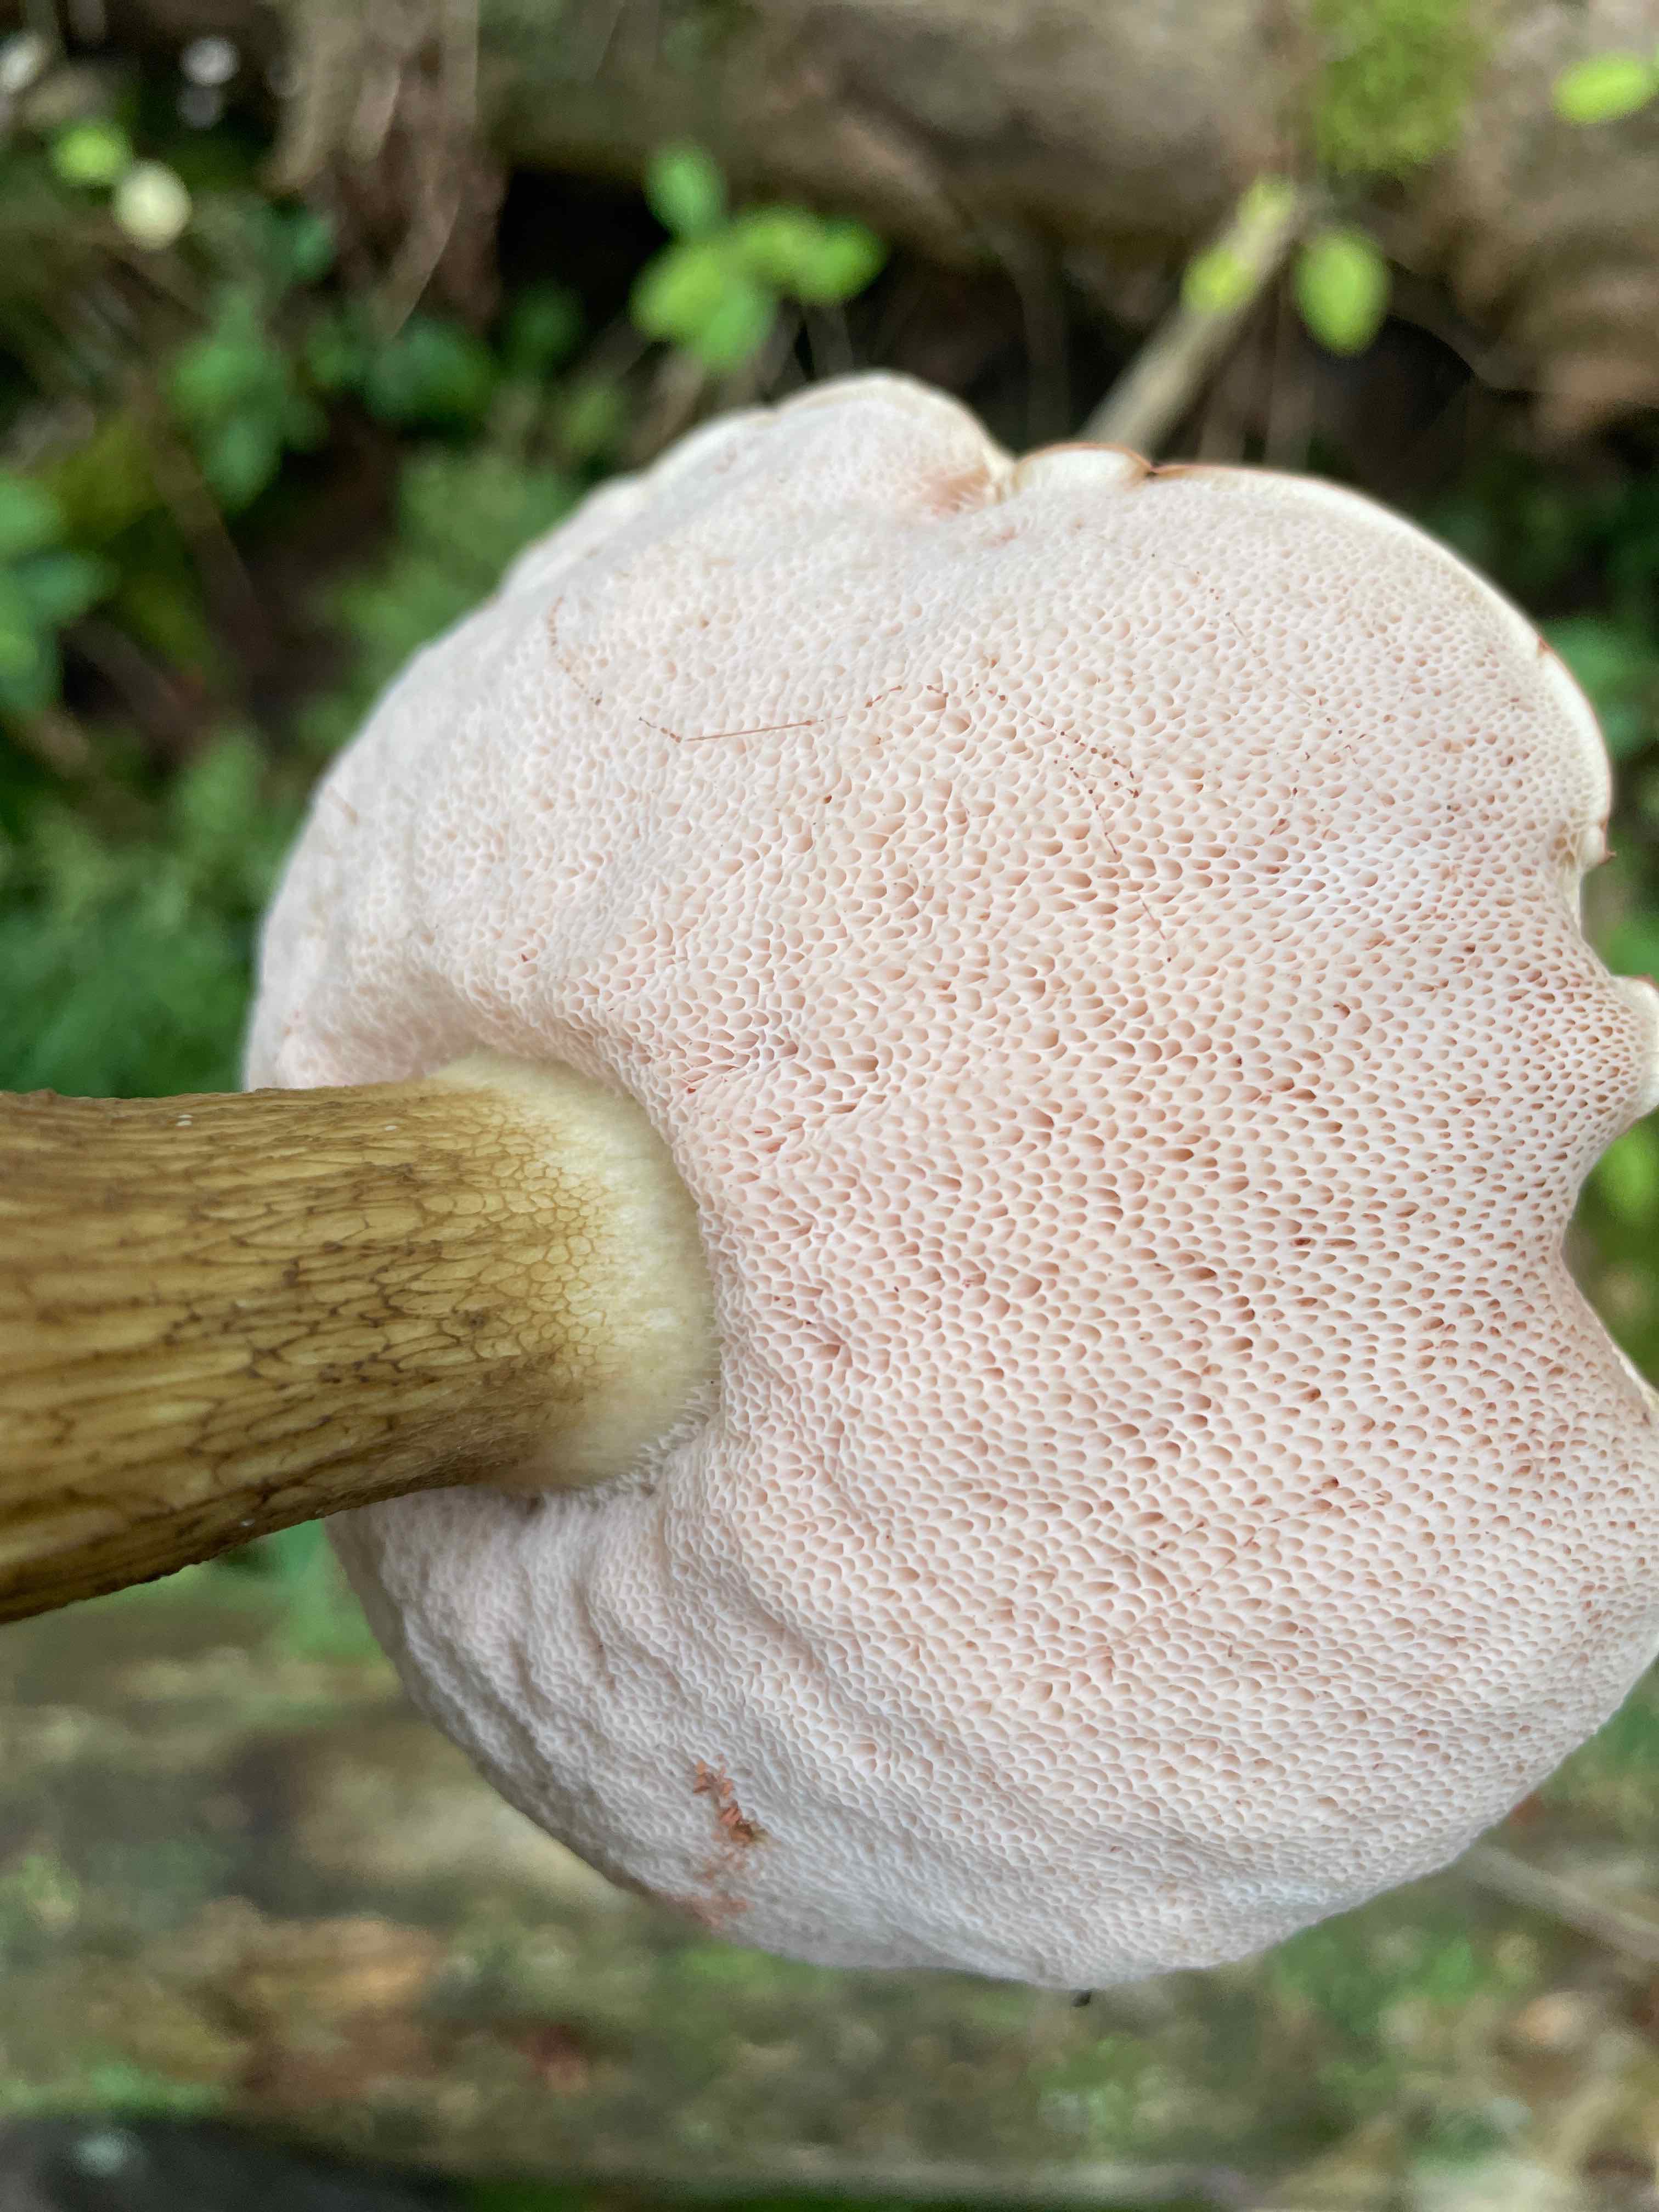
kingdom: Fungi
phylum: Basidiomycota
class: Agaricomycetes
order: Boletales
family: Boletaceae
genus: Tylopilus
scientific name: Tylopilus felleus
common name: galderørhat
